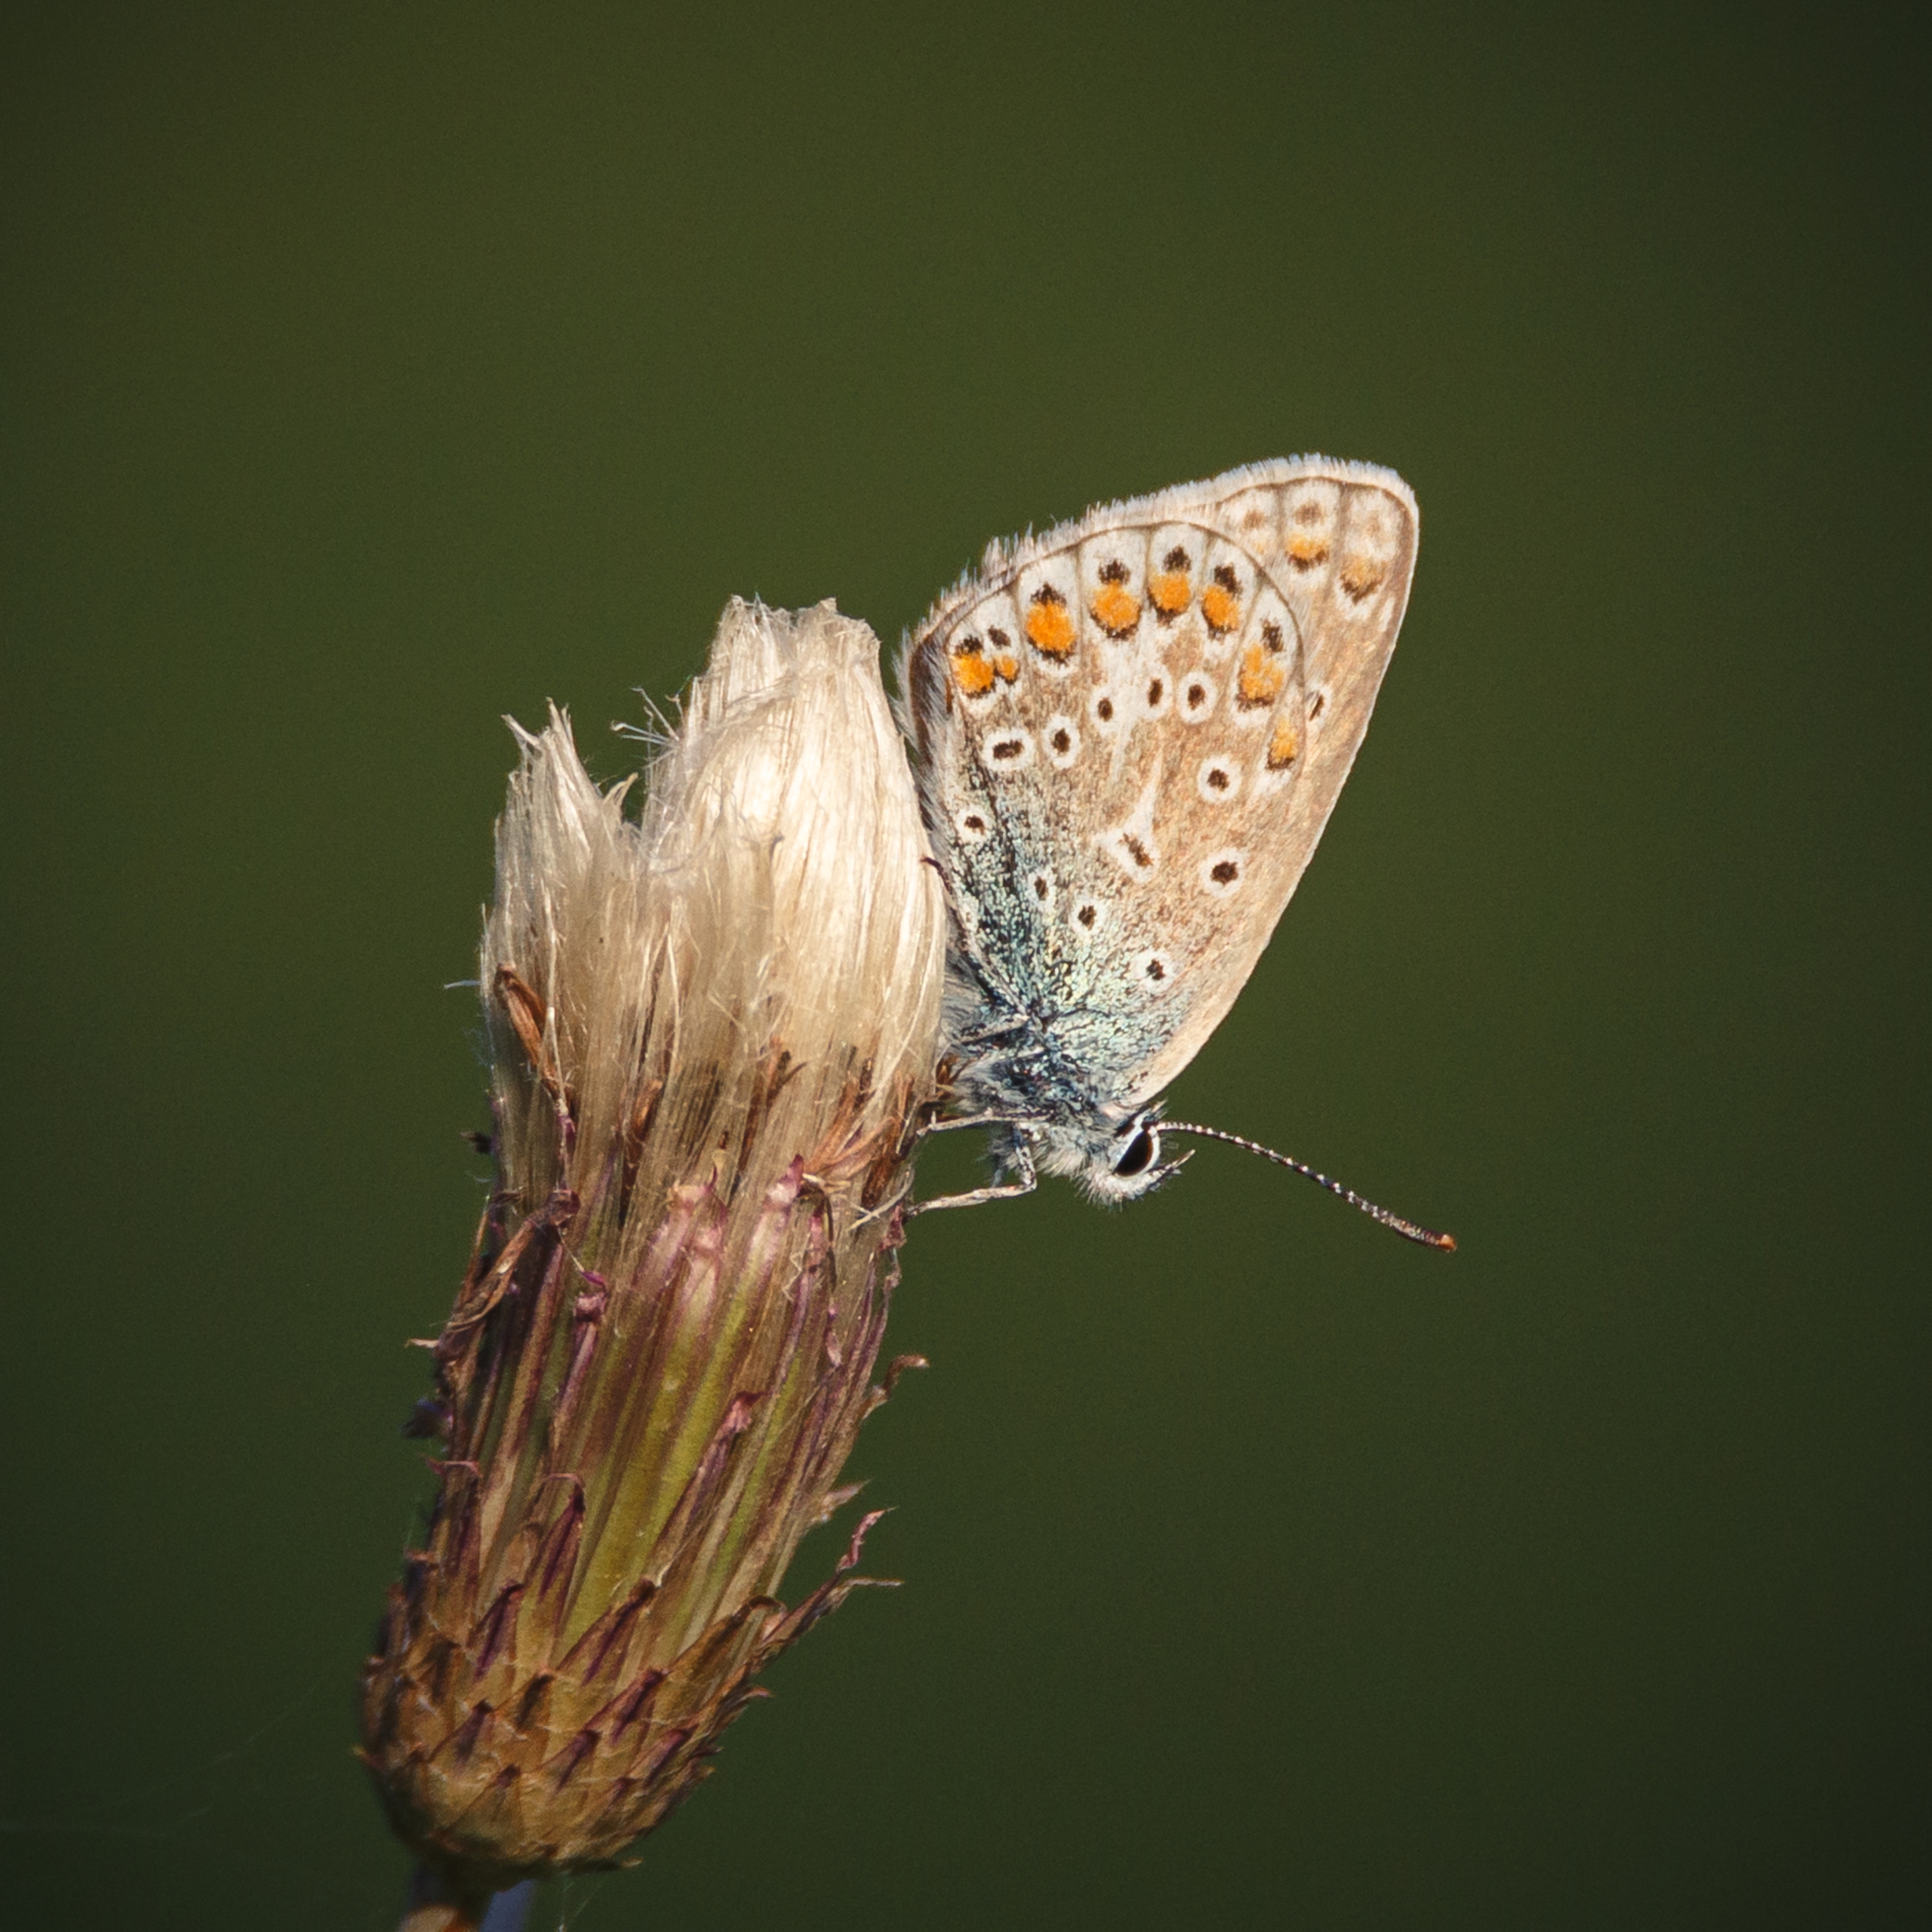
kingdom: Animalia
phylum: Arthropoda
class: Insecta
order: Lepidoptera
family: Lycaenidae
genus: Polyommatus
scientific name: Polyommatus icarus
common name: Almindelig blåfugl
